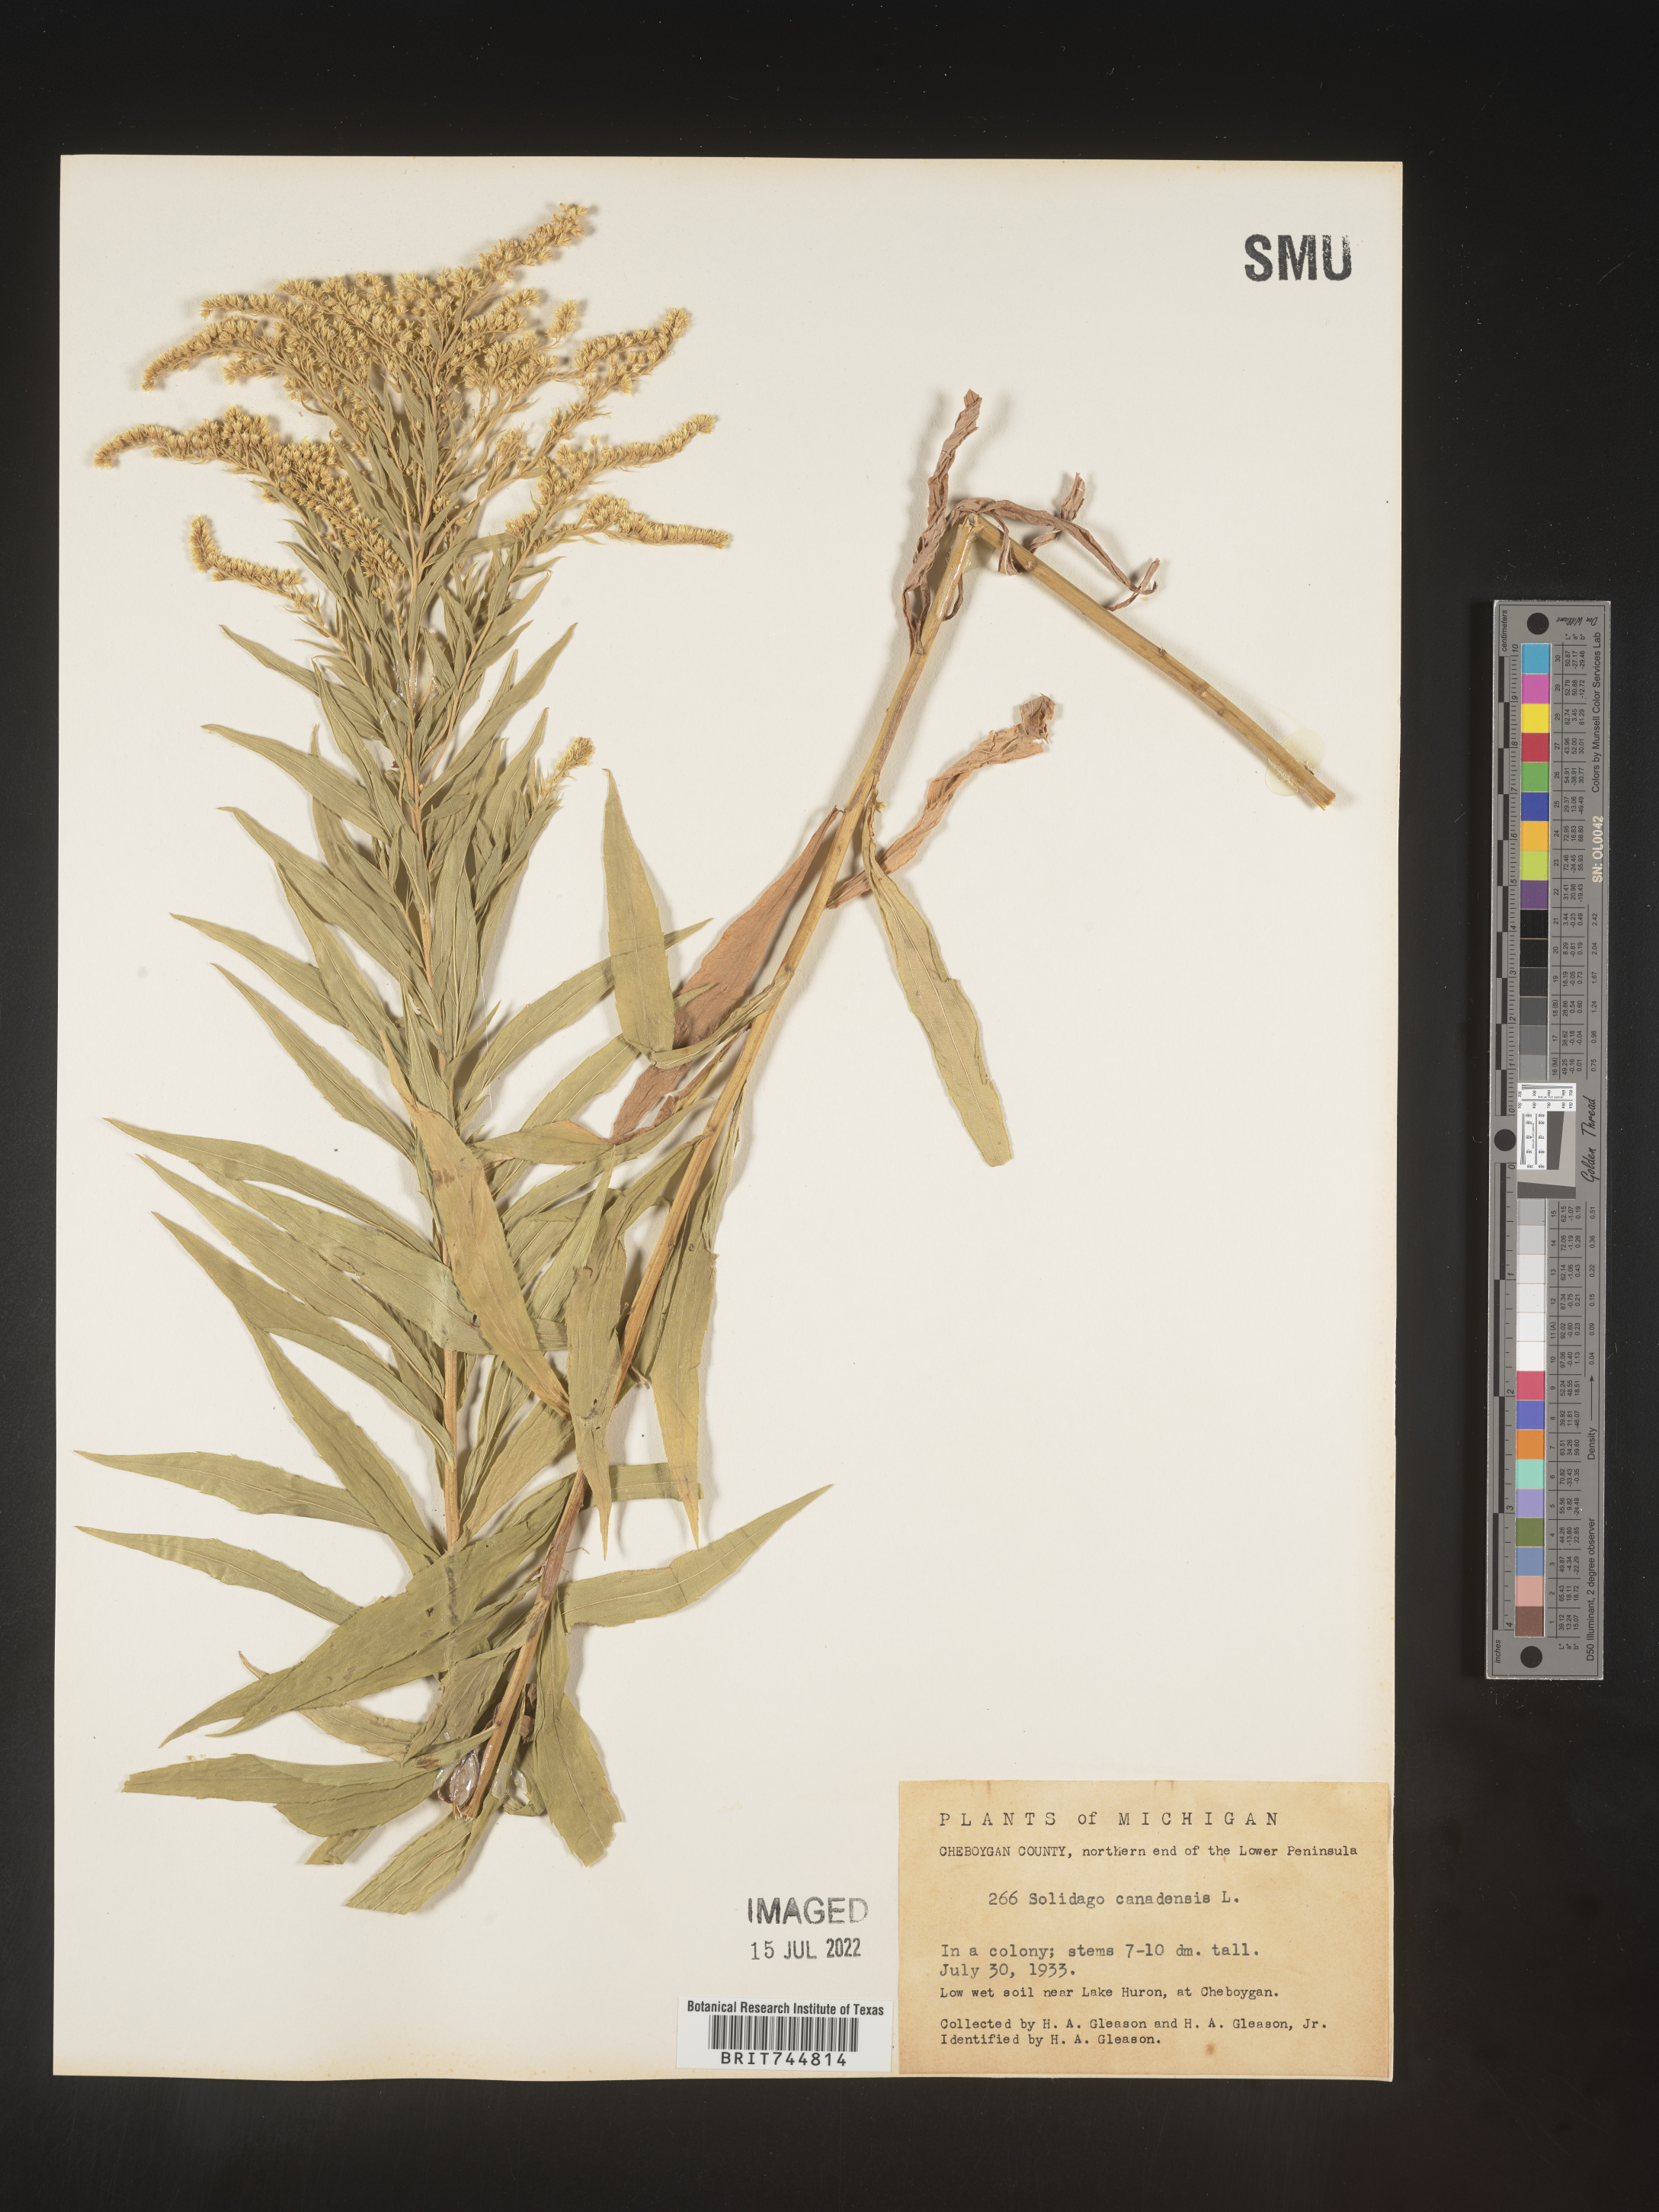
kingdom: Plantae
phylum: Tracheophyta
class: Magnoliopsida
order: Asterales
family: Asteraceae
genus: Solidago
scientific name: Solidago canadensis
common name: Canada goldenrod
